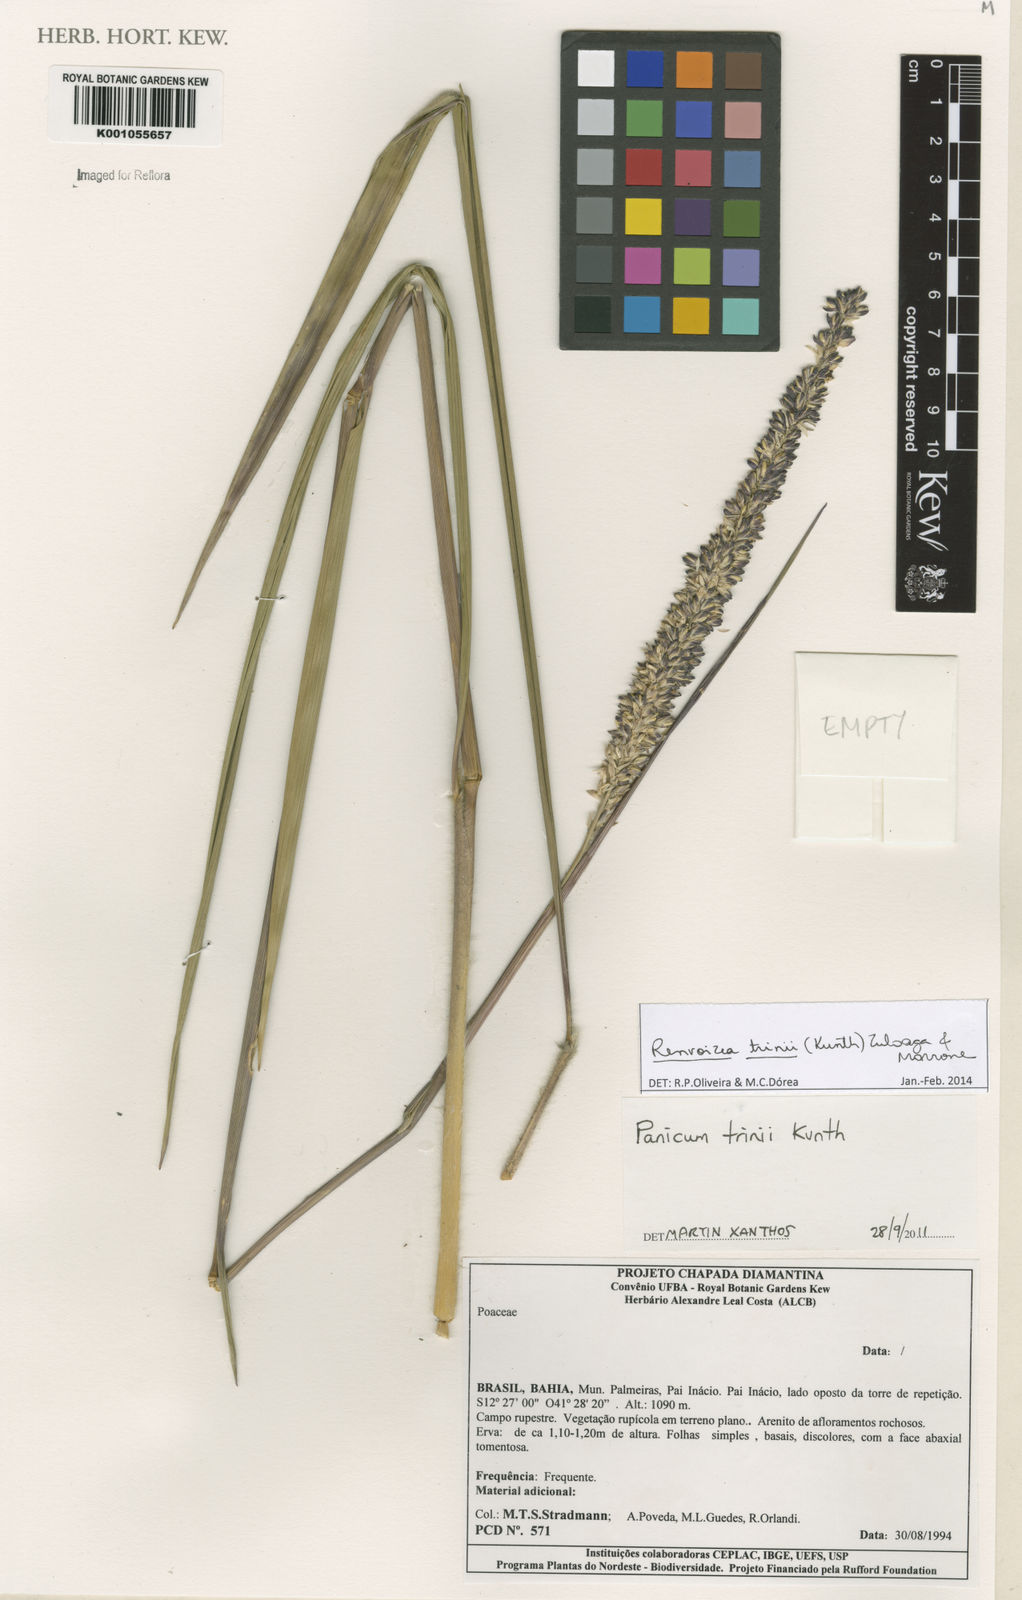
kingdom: Plantae
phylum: Tracheophyta
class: Liliopsida
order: Poales
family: Poaceae
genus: Renvoizea
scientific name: Renvoizea trinii
